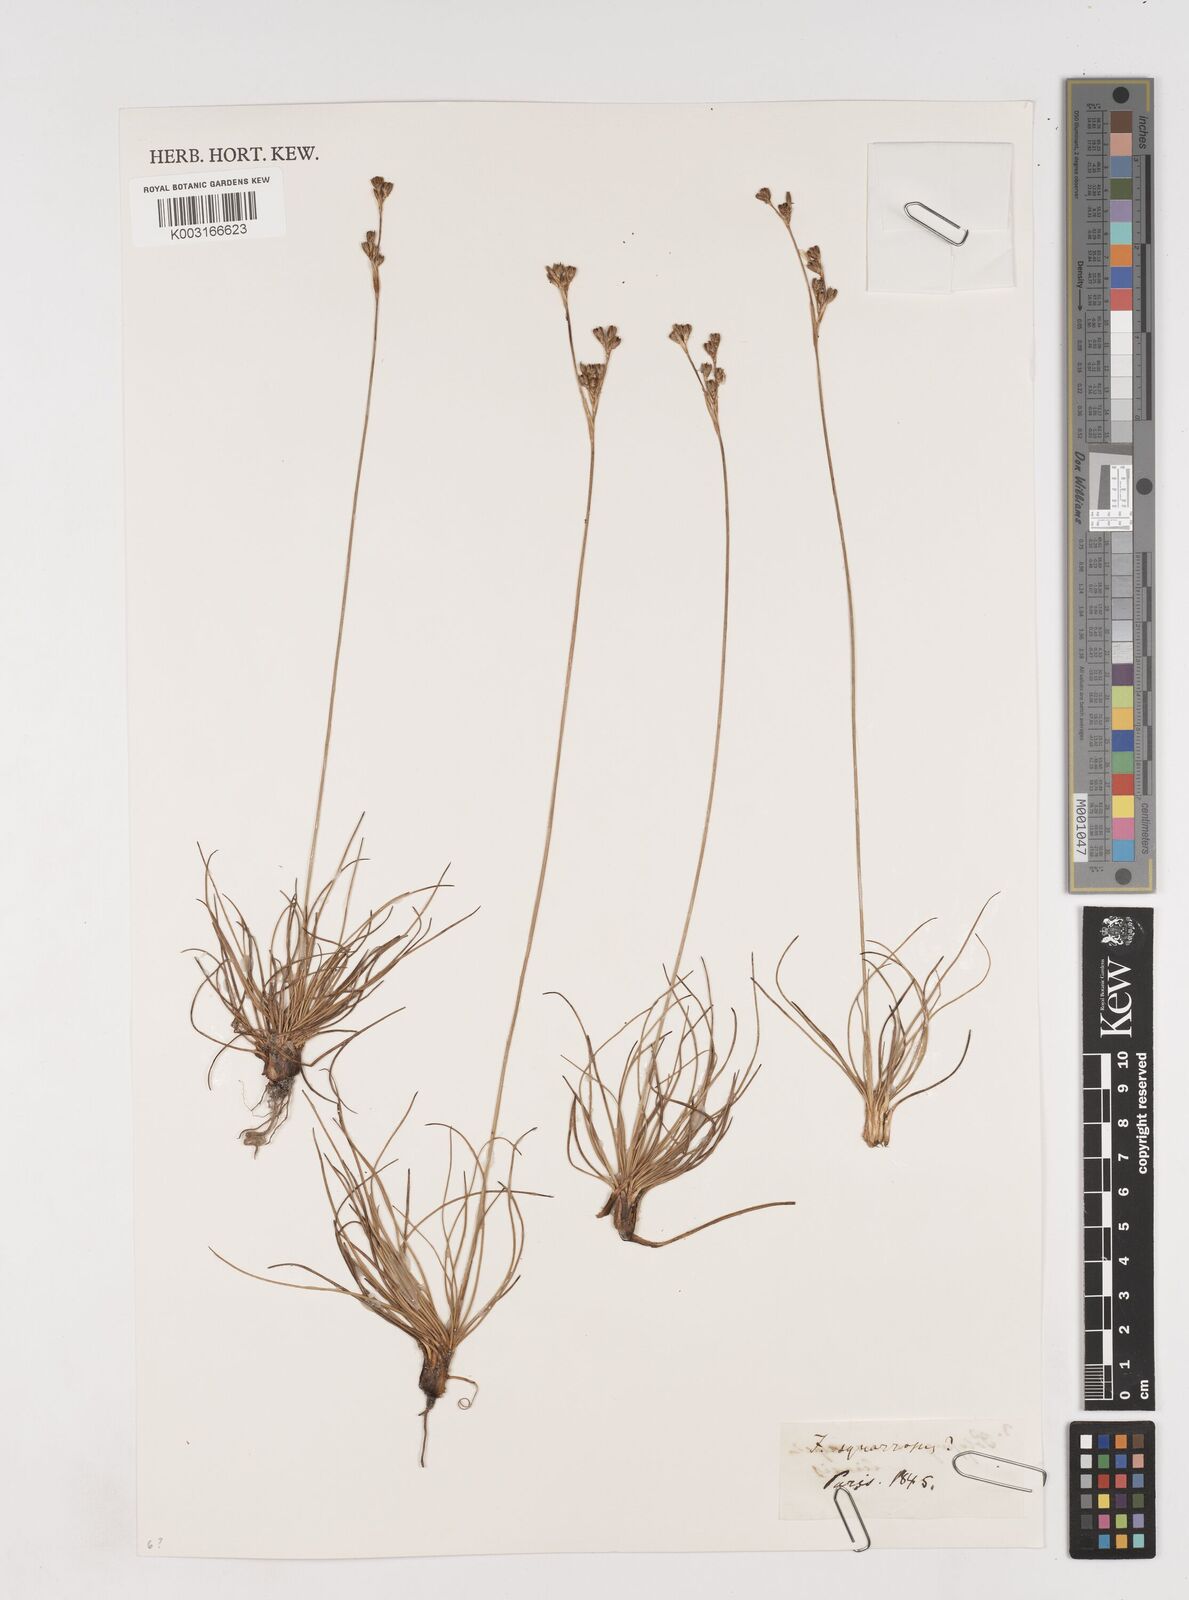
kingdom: Plantae
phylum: Tracheophyta
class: Liliopsida
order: Poales
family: Juncaceae
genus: Juncus
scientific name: Juncus squarrosus
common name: Heath rush
